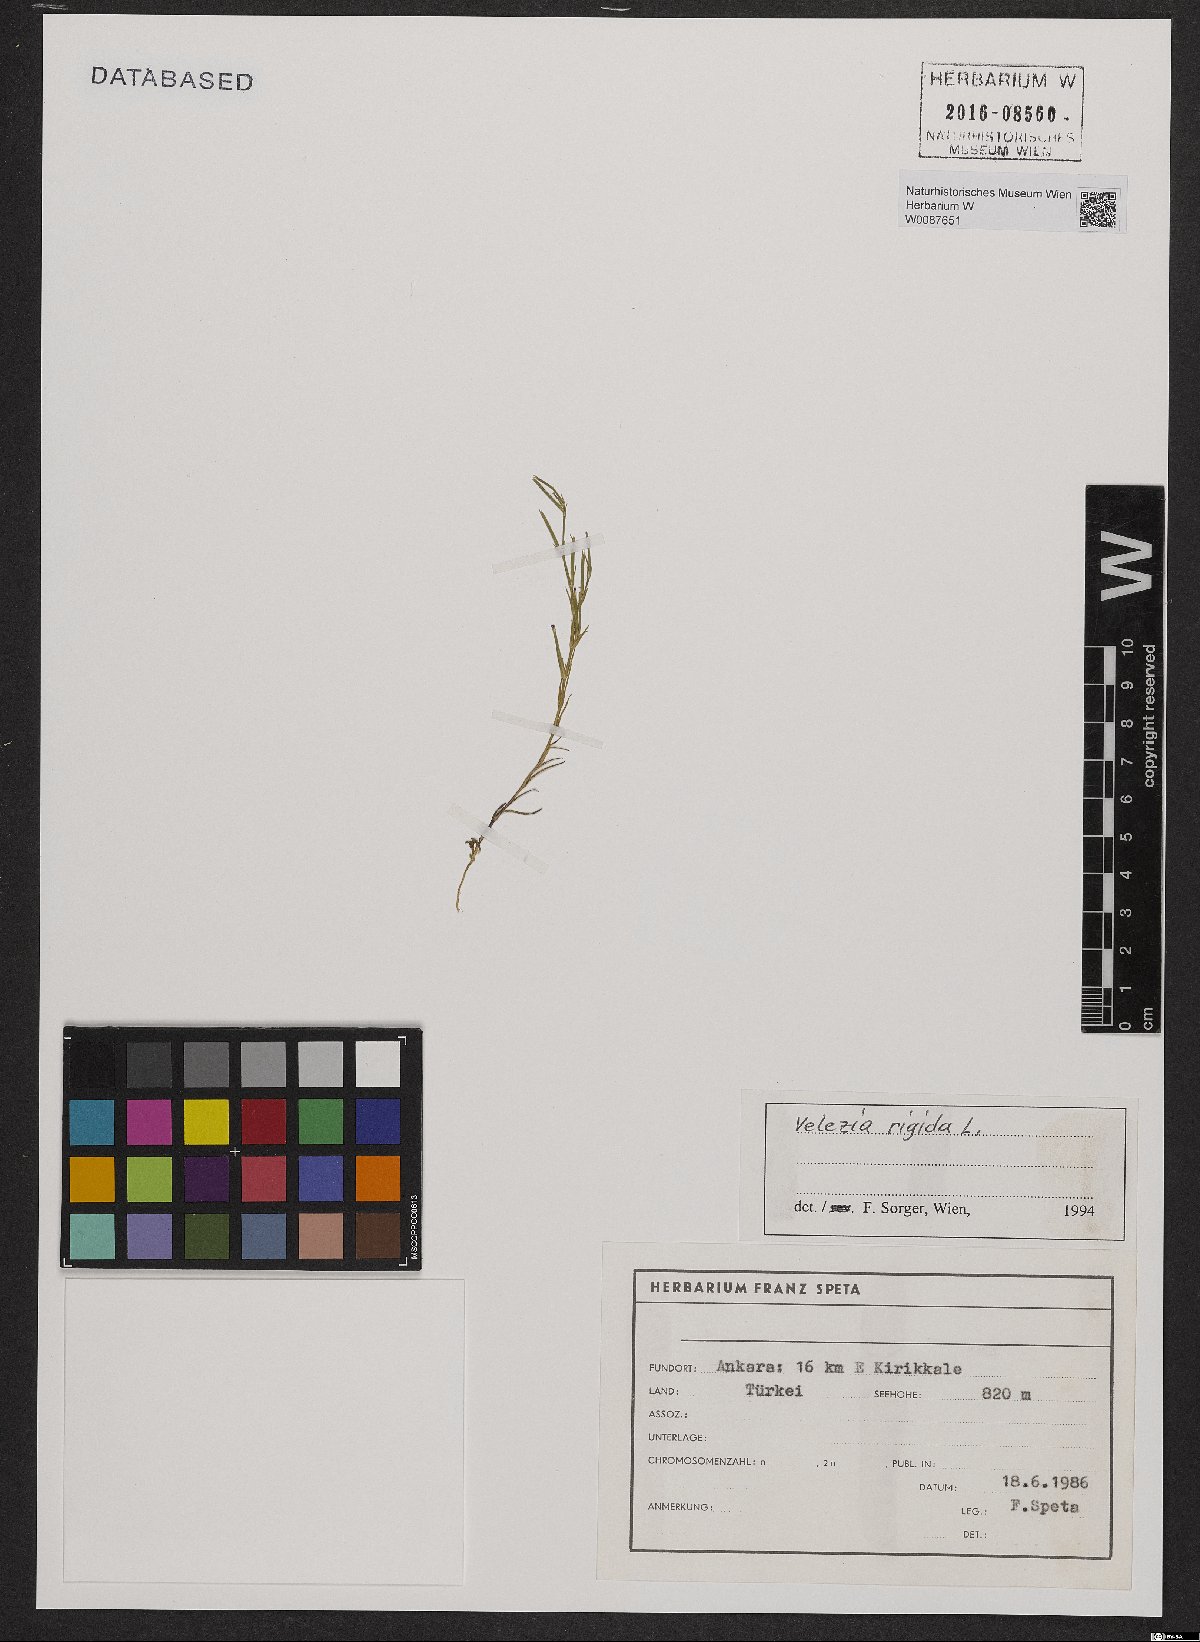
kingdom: Plantae
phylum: Tracheophyta
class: Magnoliopsida
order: Caryophyllales
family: Caryophyllaceae
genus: Dianthus
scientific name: Dianthus nudiflorus
